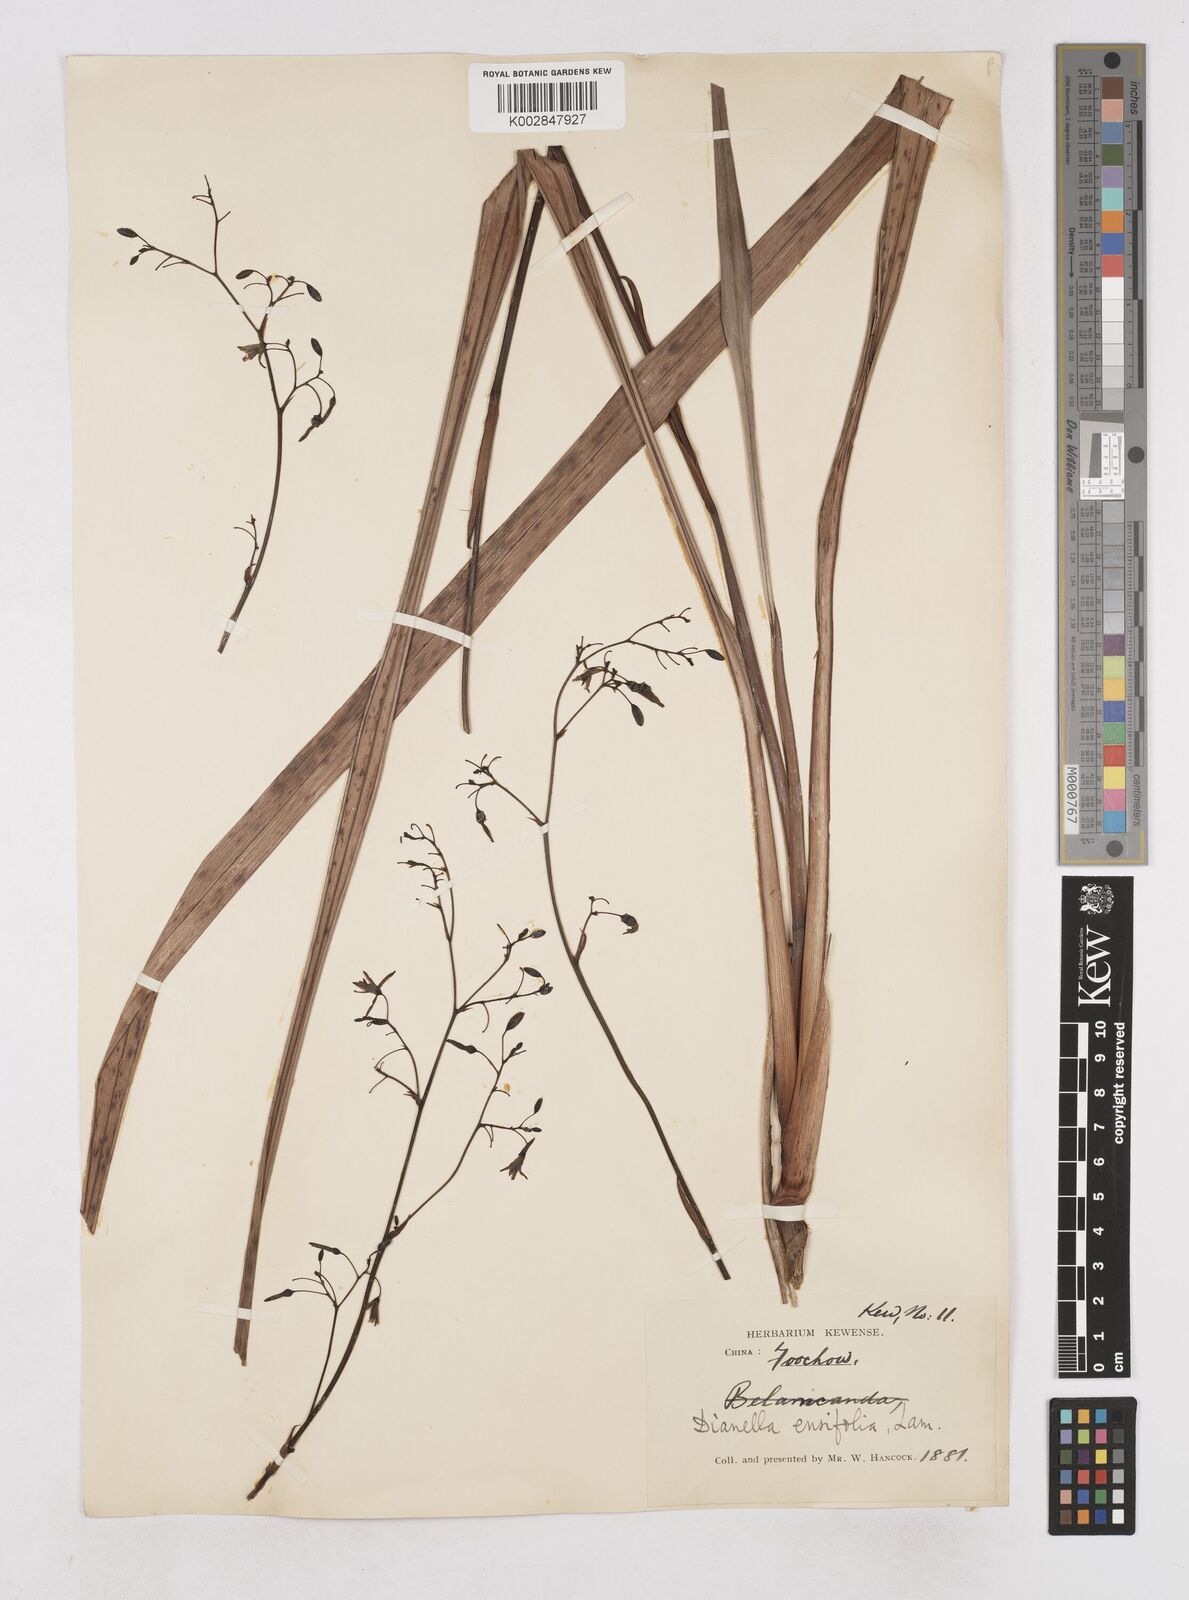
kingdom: Plantae
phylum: Tracheophyta
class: Liliopsida
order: Asparagales
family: Asphodelaceae
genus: Dianella
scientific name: Dianella ensifolia
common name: New zealand lilyplant
